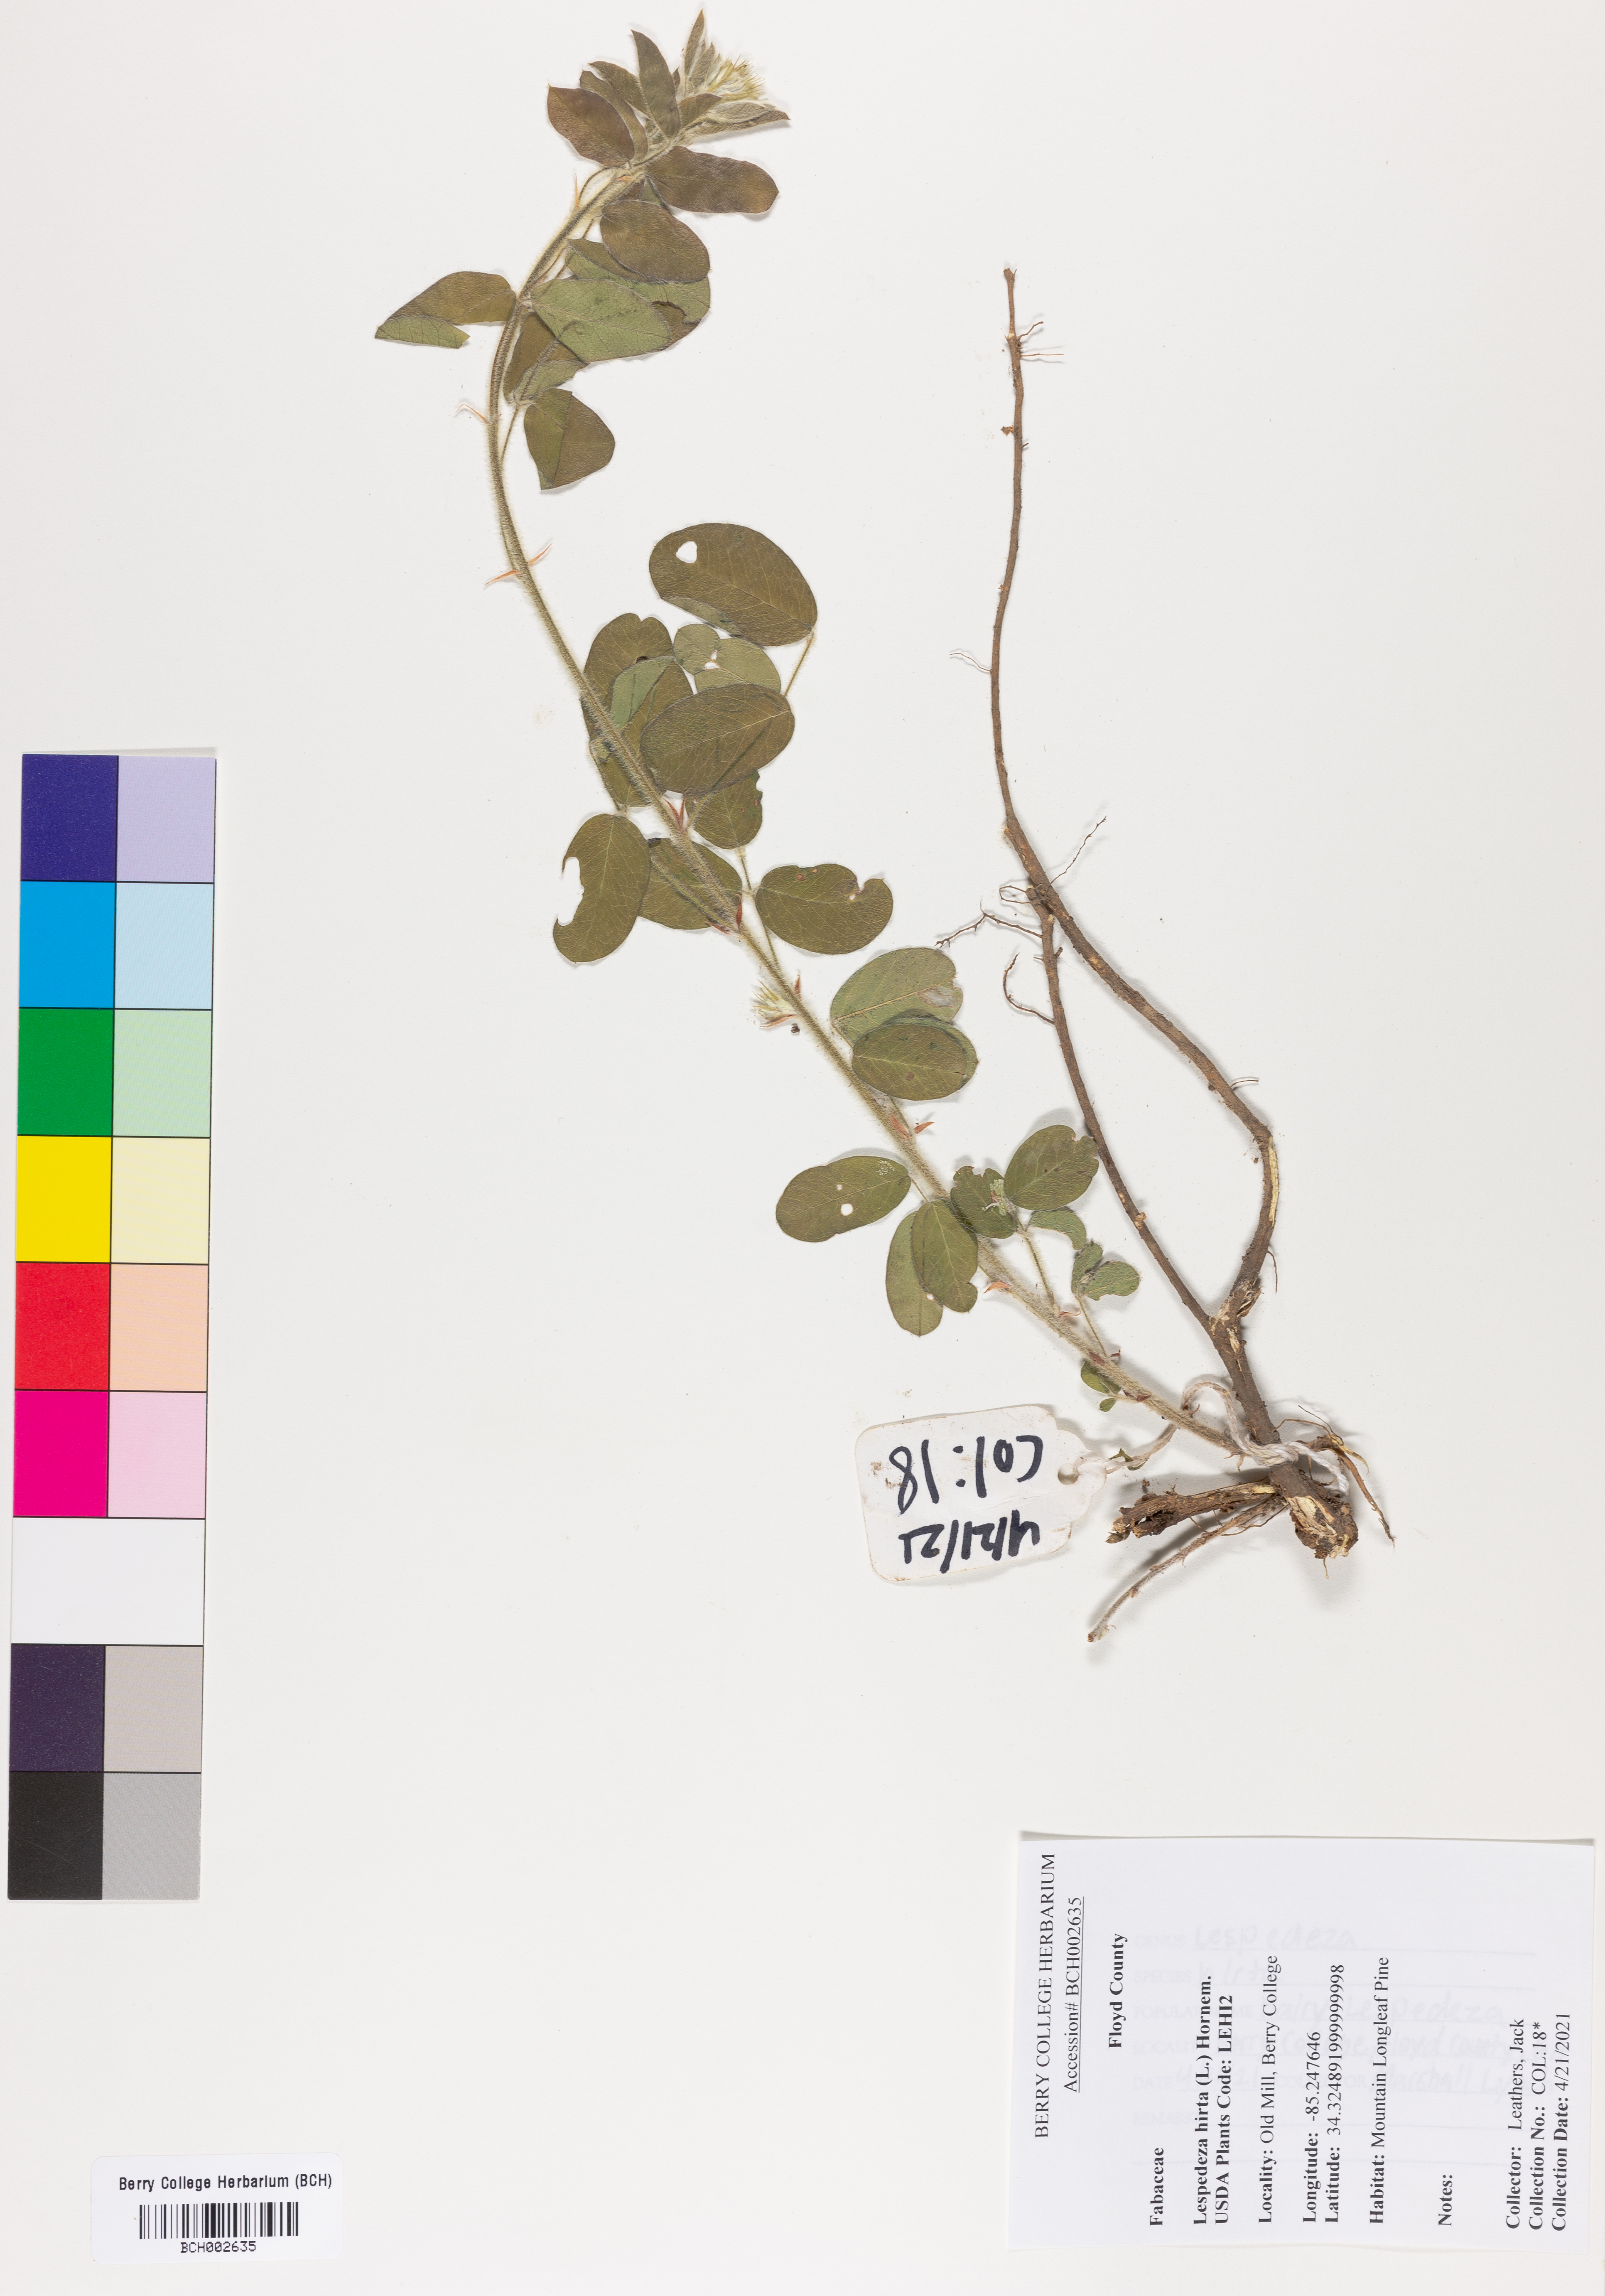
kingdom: Plantae
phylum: Tracheophyta
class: Magnoliopsida
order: Fabales
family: Fabaceae
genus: Lespedeza
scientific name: Lespedeza hirta
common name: Hairy lespedeza
